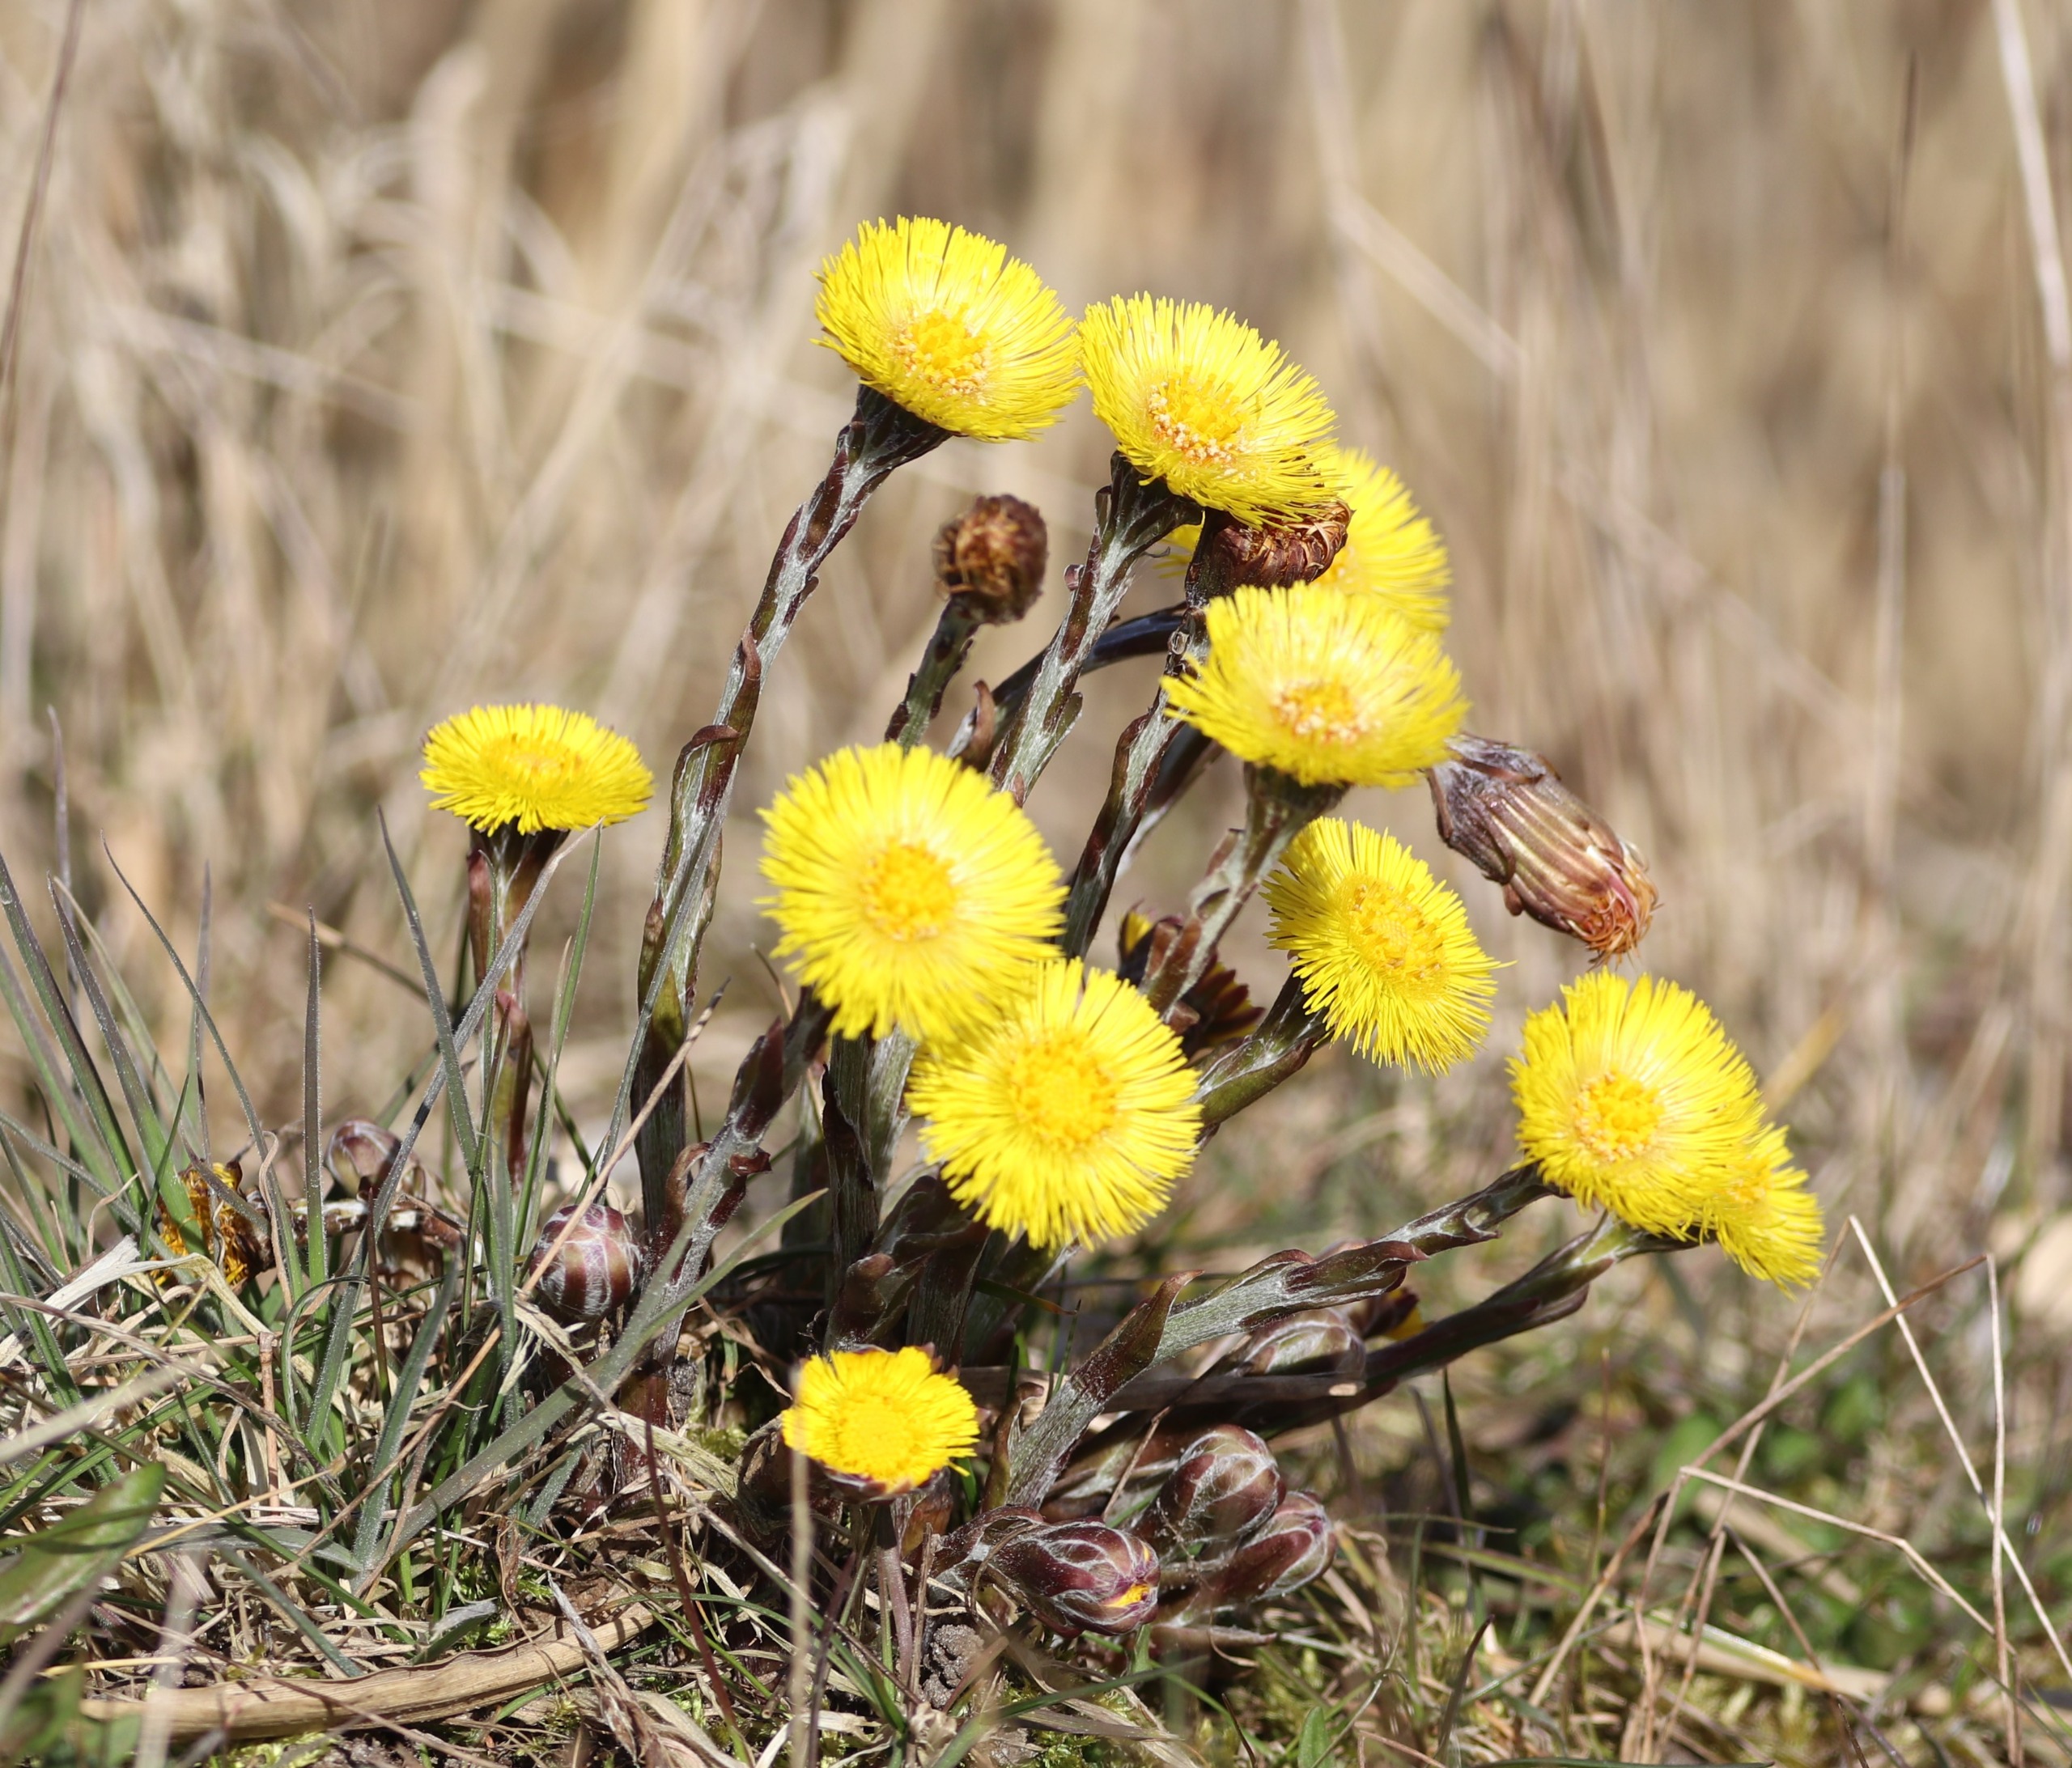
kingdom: Plantae
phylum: Tracheophyta
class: Magnoliopsida
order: Asterales
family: Asteraceae
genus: Tussilago
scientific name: Tussilago farfara
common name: Følfod
